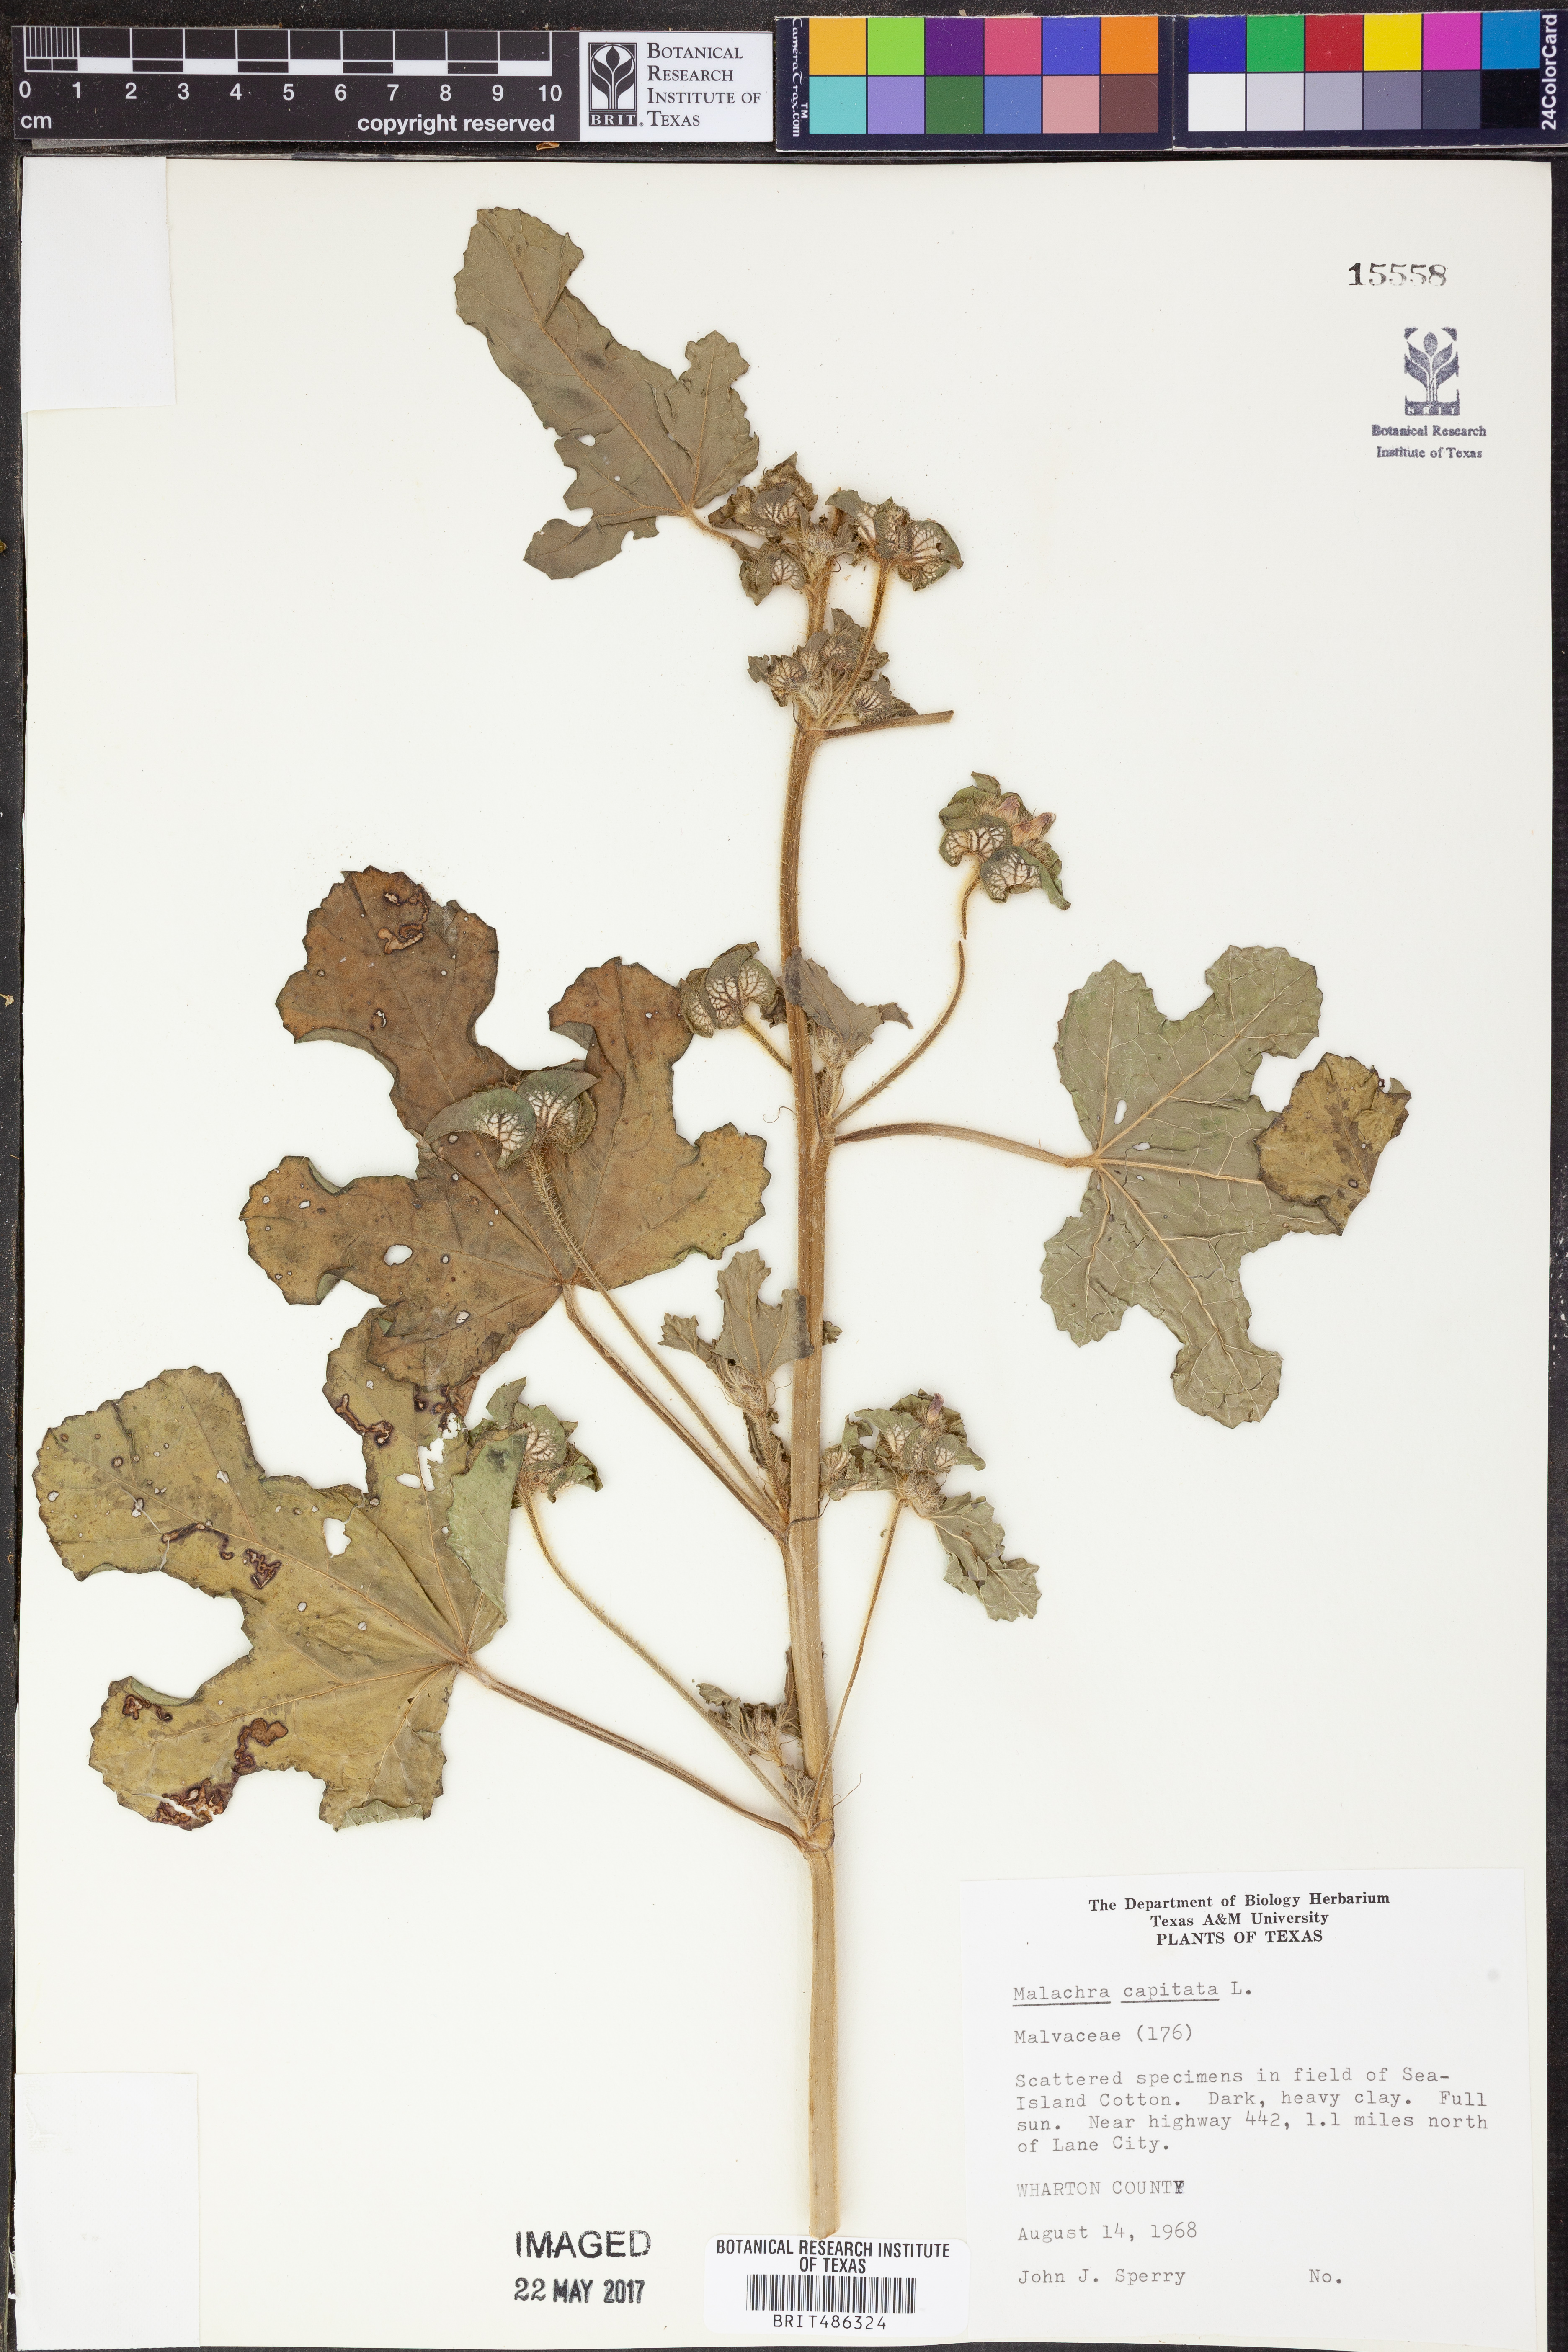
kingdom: Plantae
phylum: Tracheophyta
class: Magnoliopsida
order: Malvales
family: Malvaceae
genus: Malachra
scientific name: Malachra capitata
